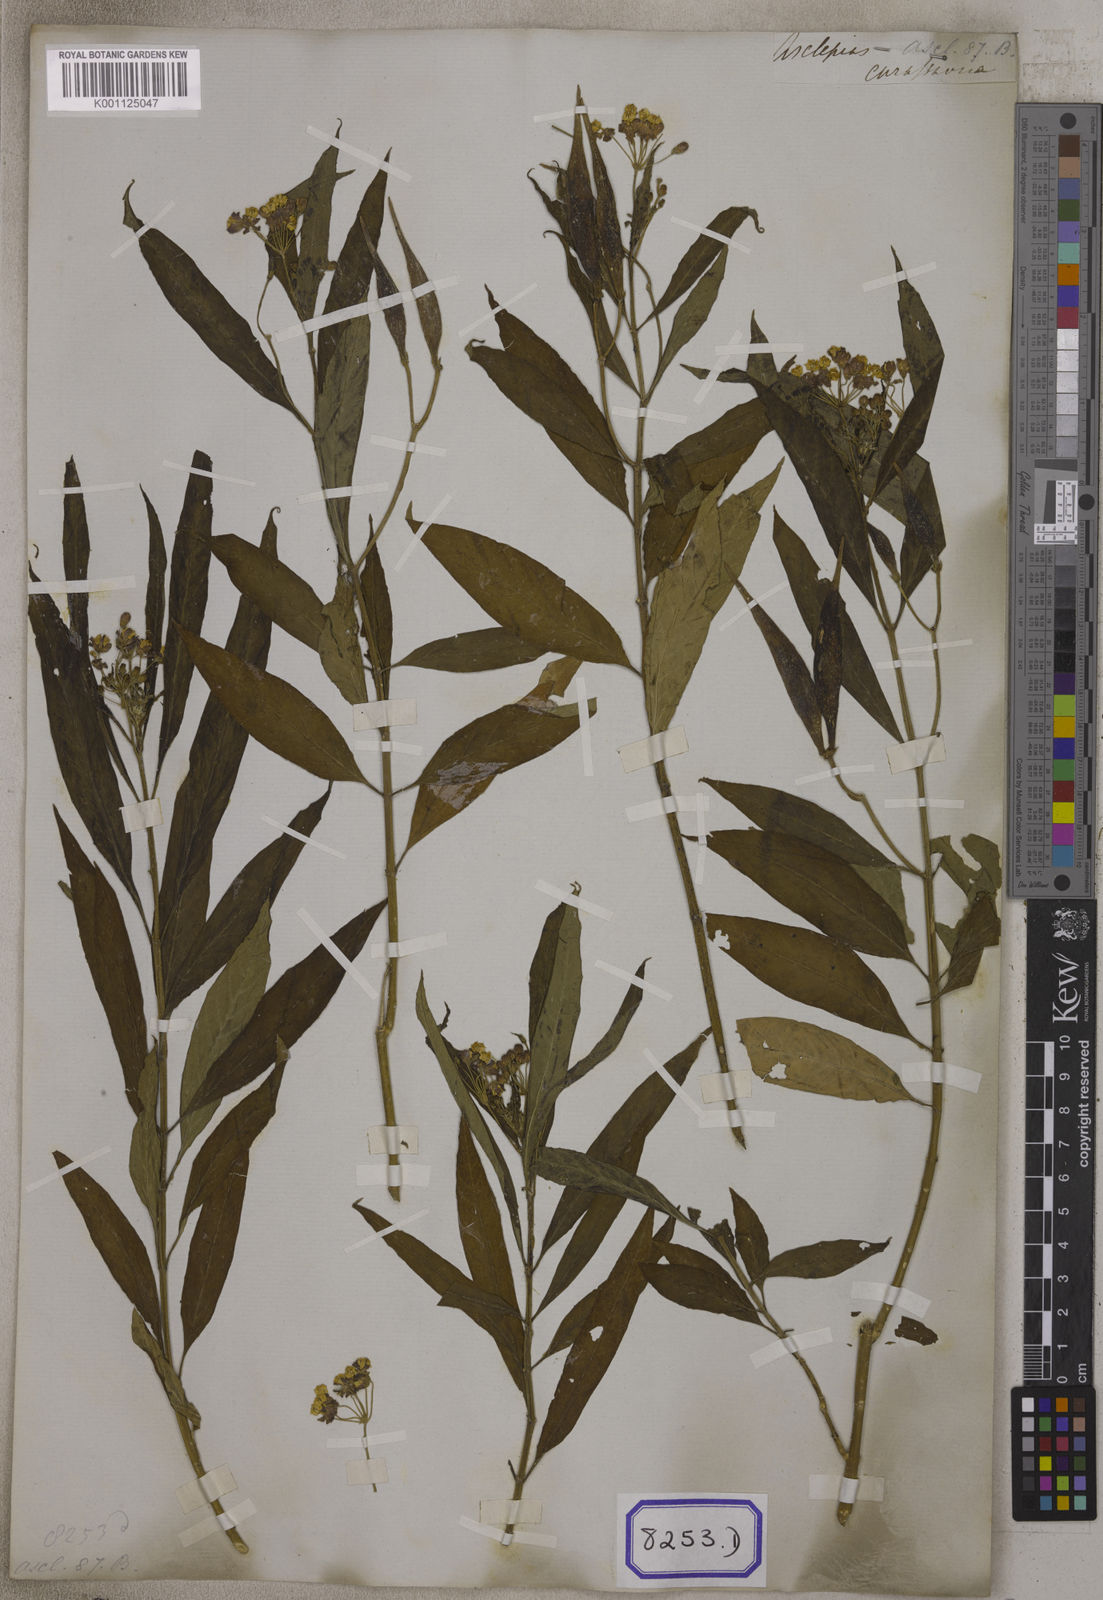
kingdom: Plantae
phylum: Tracheophyta
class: Magnoliopsida
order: Gentianales
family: Apocynaceae
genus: Asclepias
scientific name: Asclepias curassavica
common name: Bloodflower
